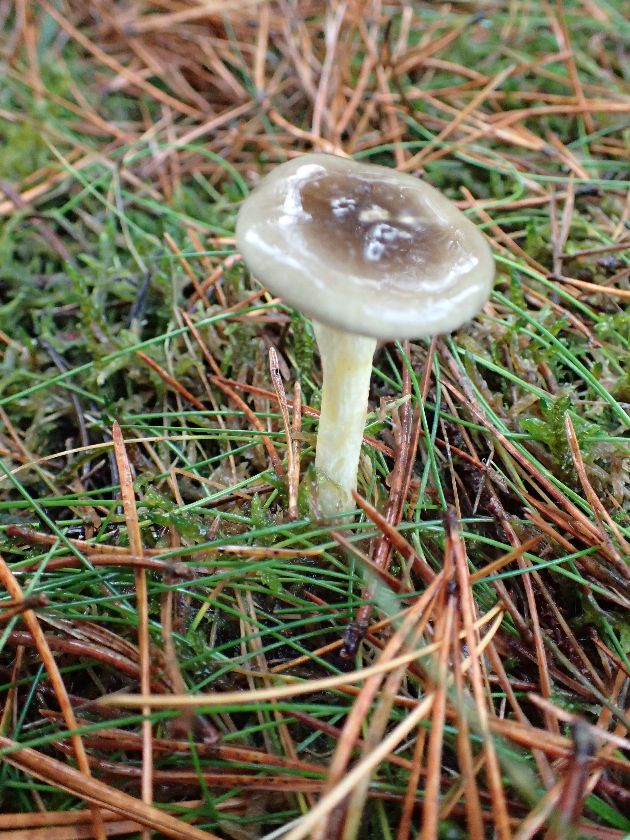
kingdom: Fungi
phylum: Basidiomycota
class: Agaricomycetes
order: Agaricales
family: Hygrophoraceae
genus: Hygrophorus
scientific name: Hygrophorus hypothejus
